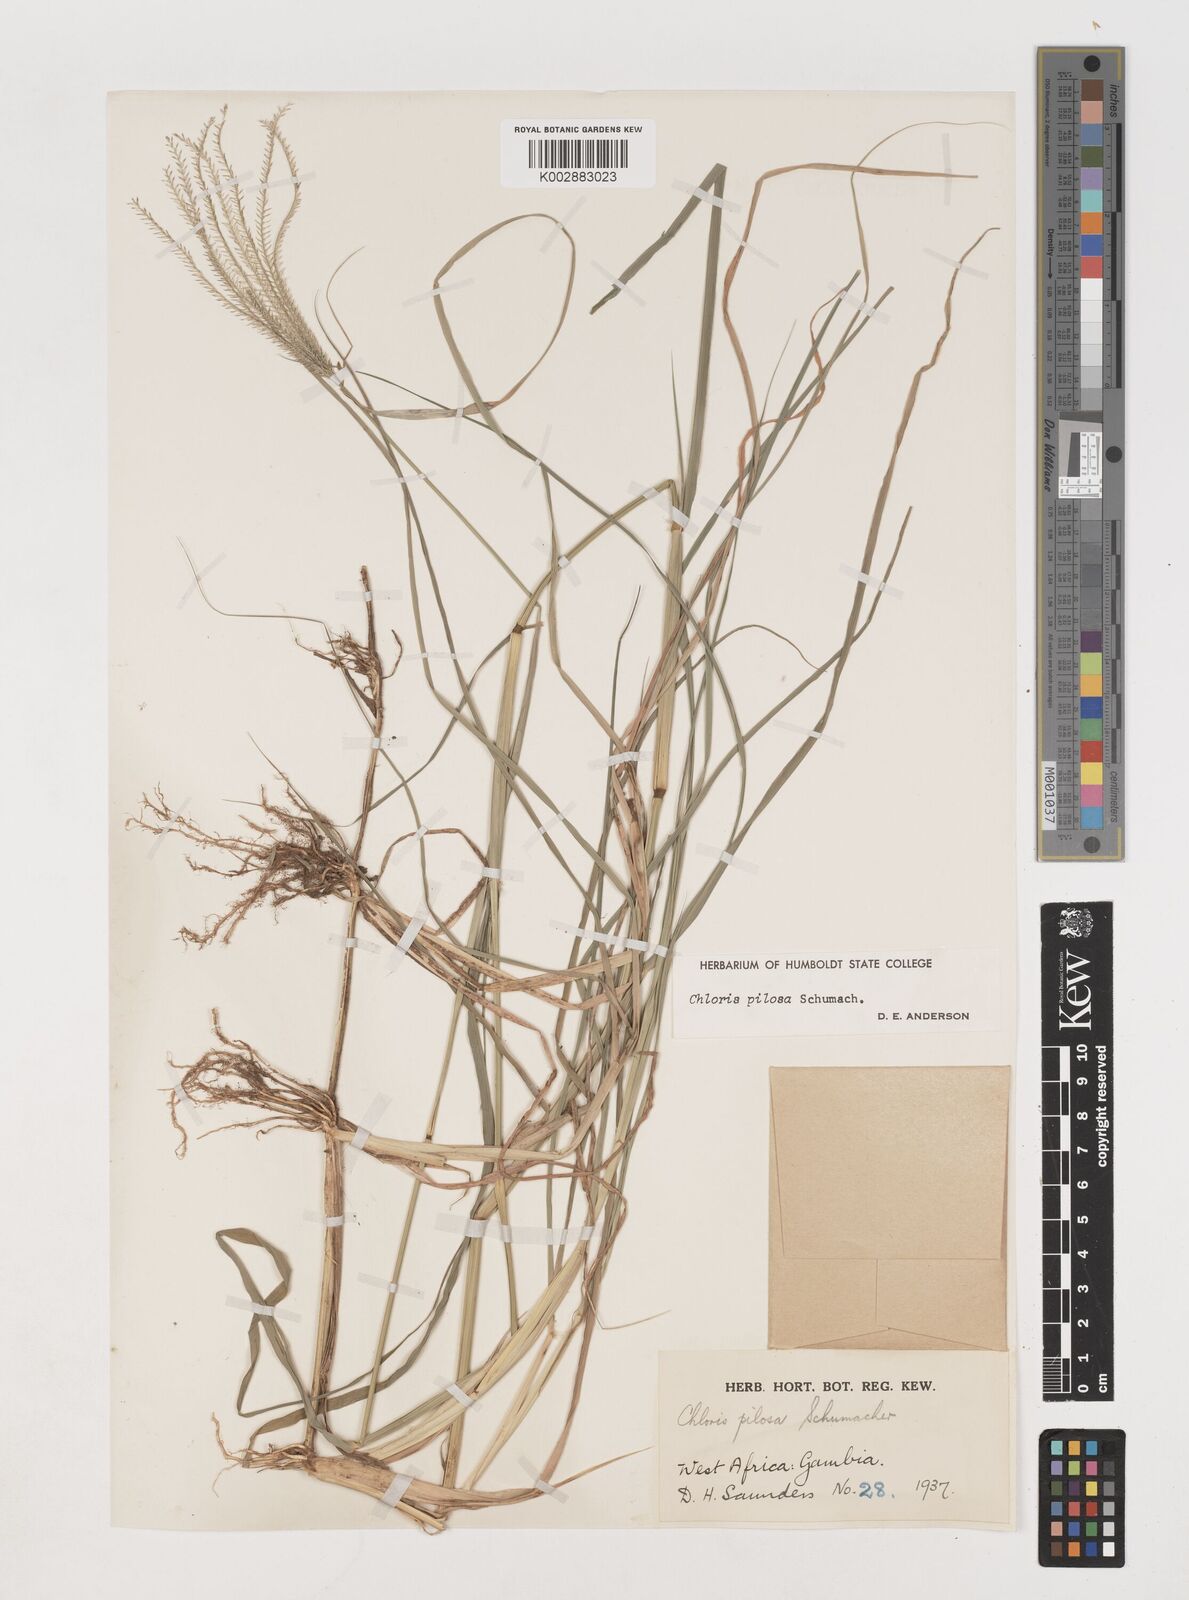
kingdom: Plantae
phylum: Tracheophyta
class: Liliopsida
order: Poales
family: Poaceae
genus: Chloris
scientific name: Chloris pilosa
